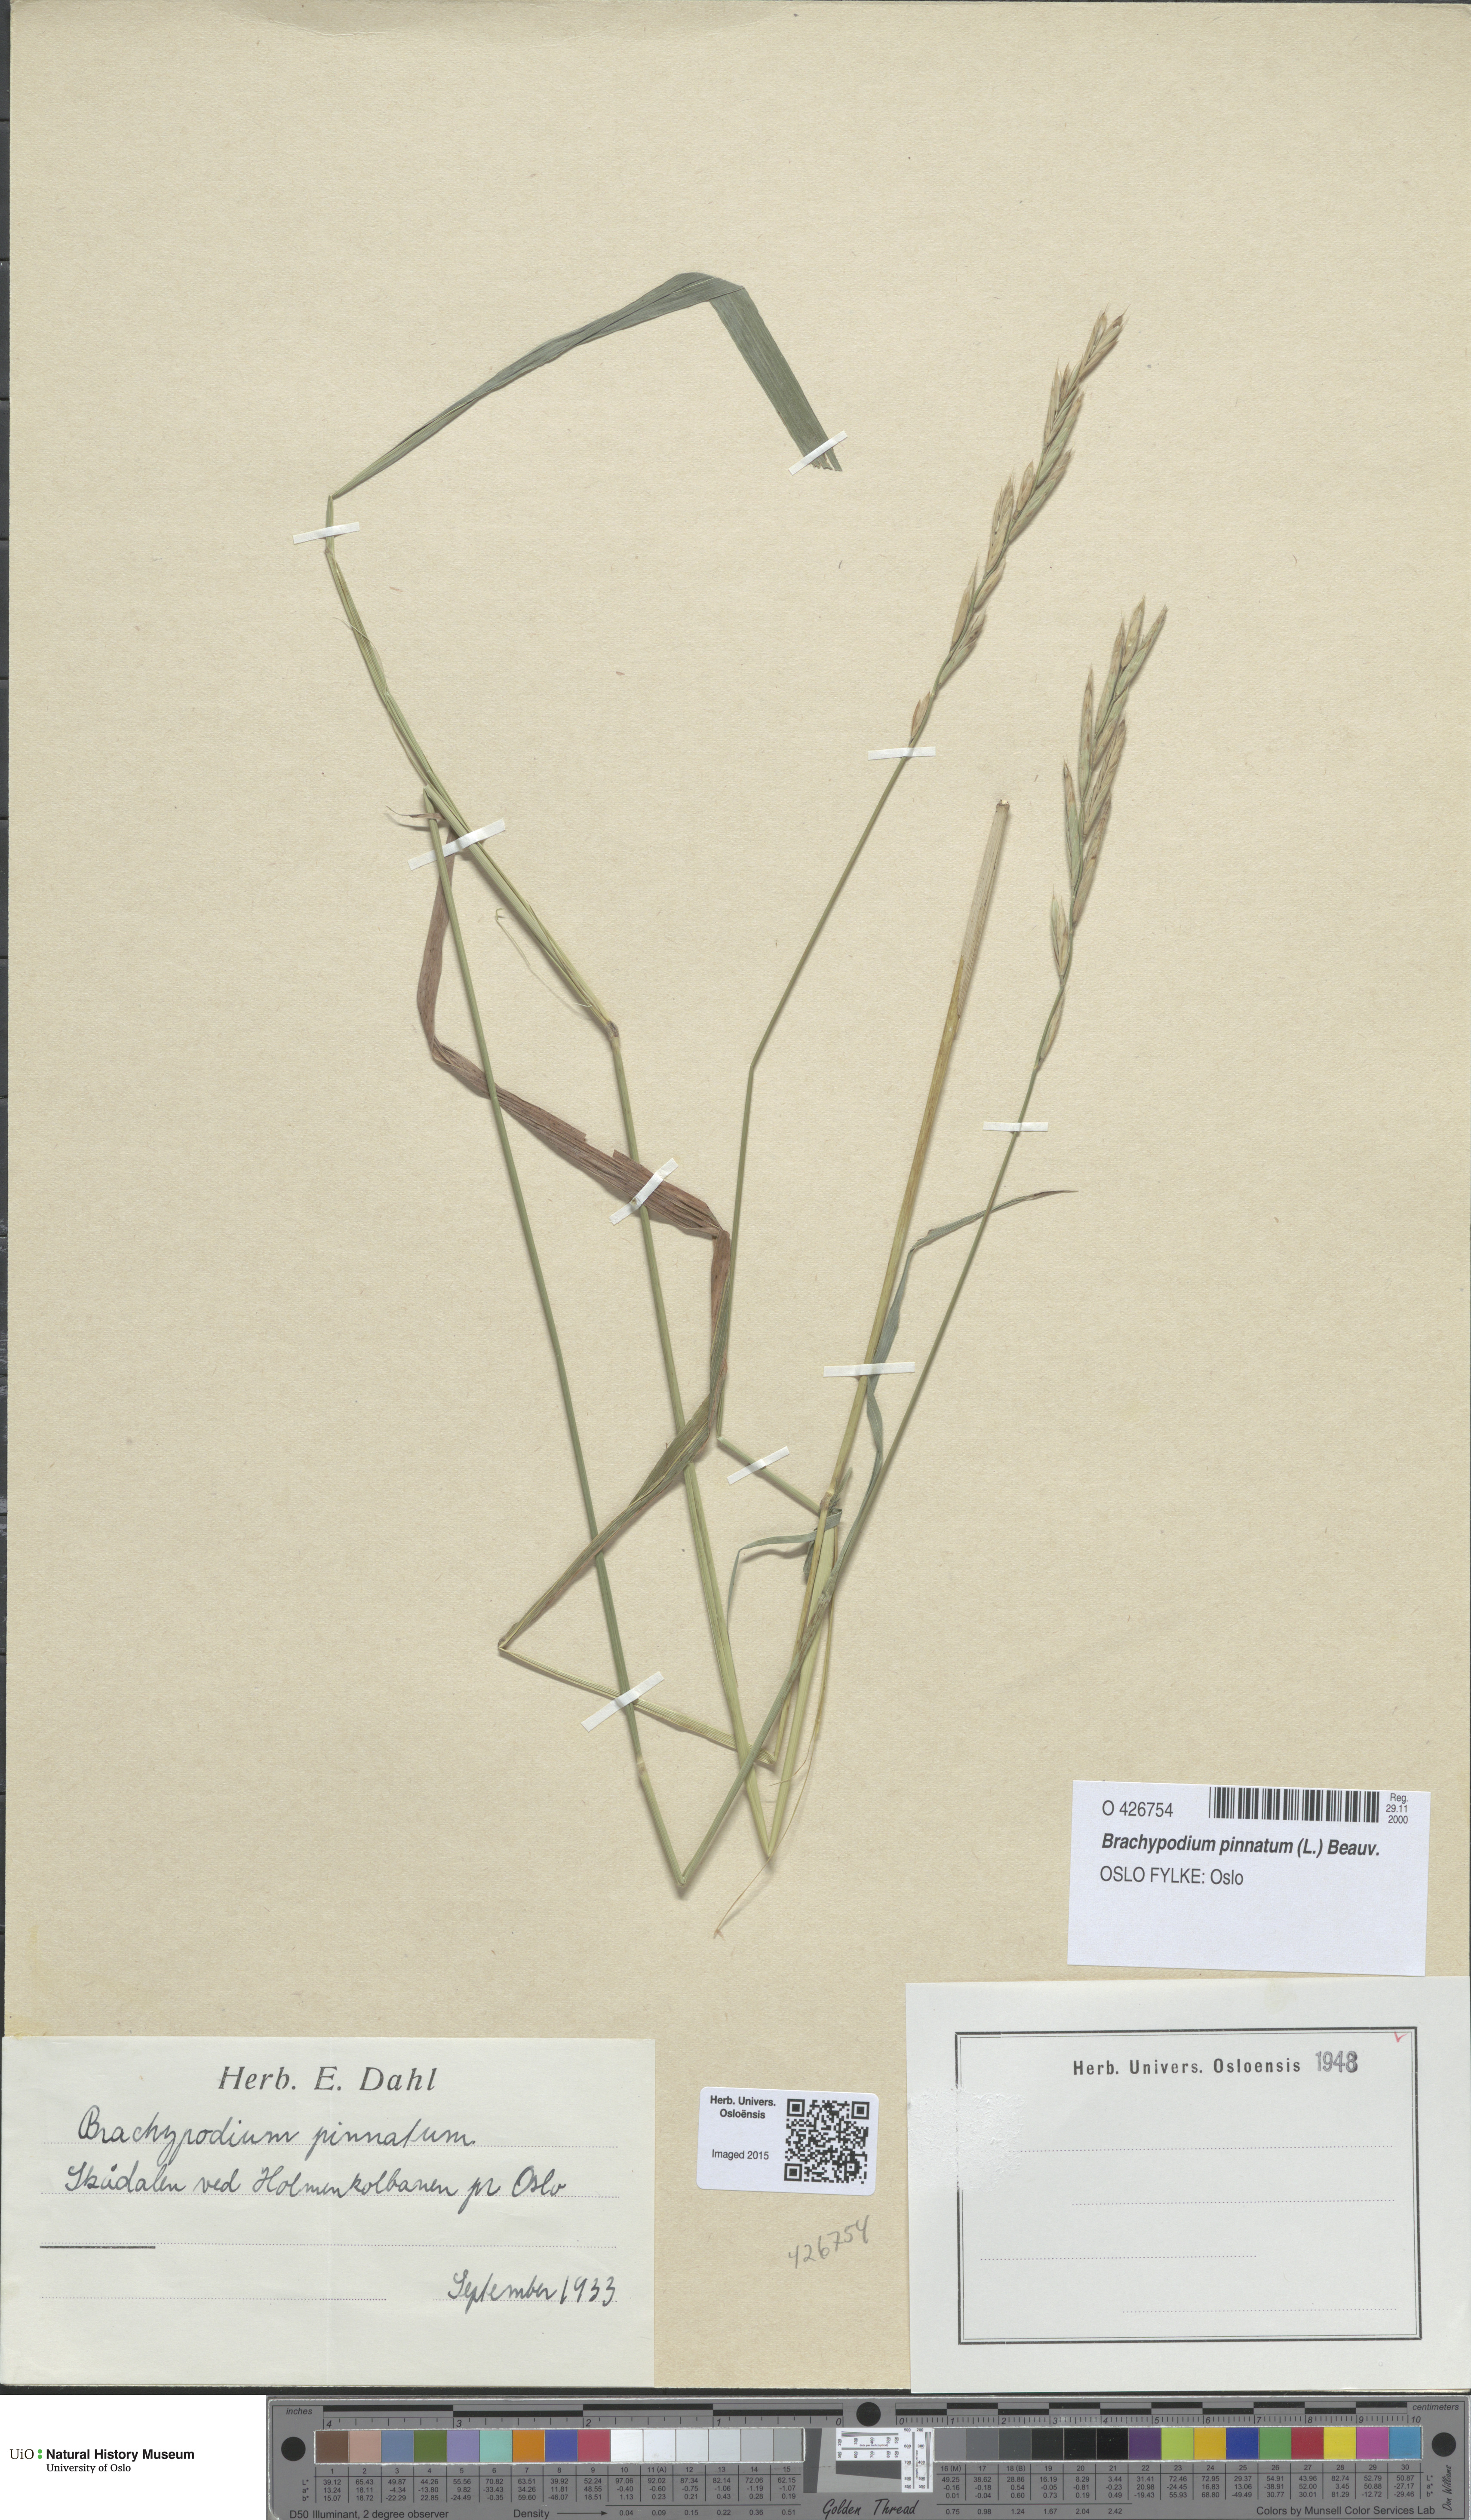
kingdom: Plantae
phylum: Tracheophyta
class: Liliopsida
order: Poales
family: Poaceae
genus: Brachypodium
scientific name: Brachypodium pinnatum
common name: Tor grass
